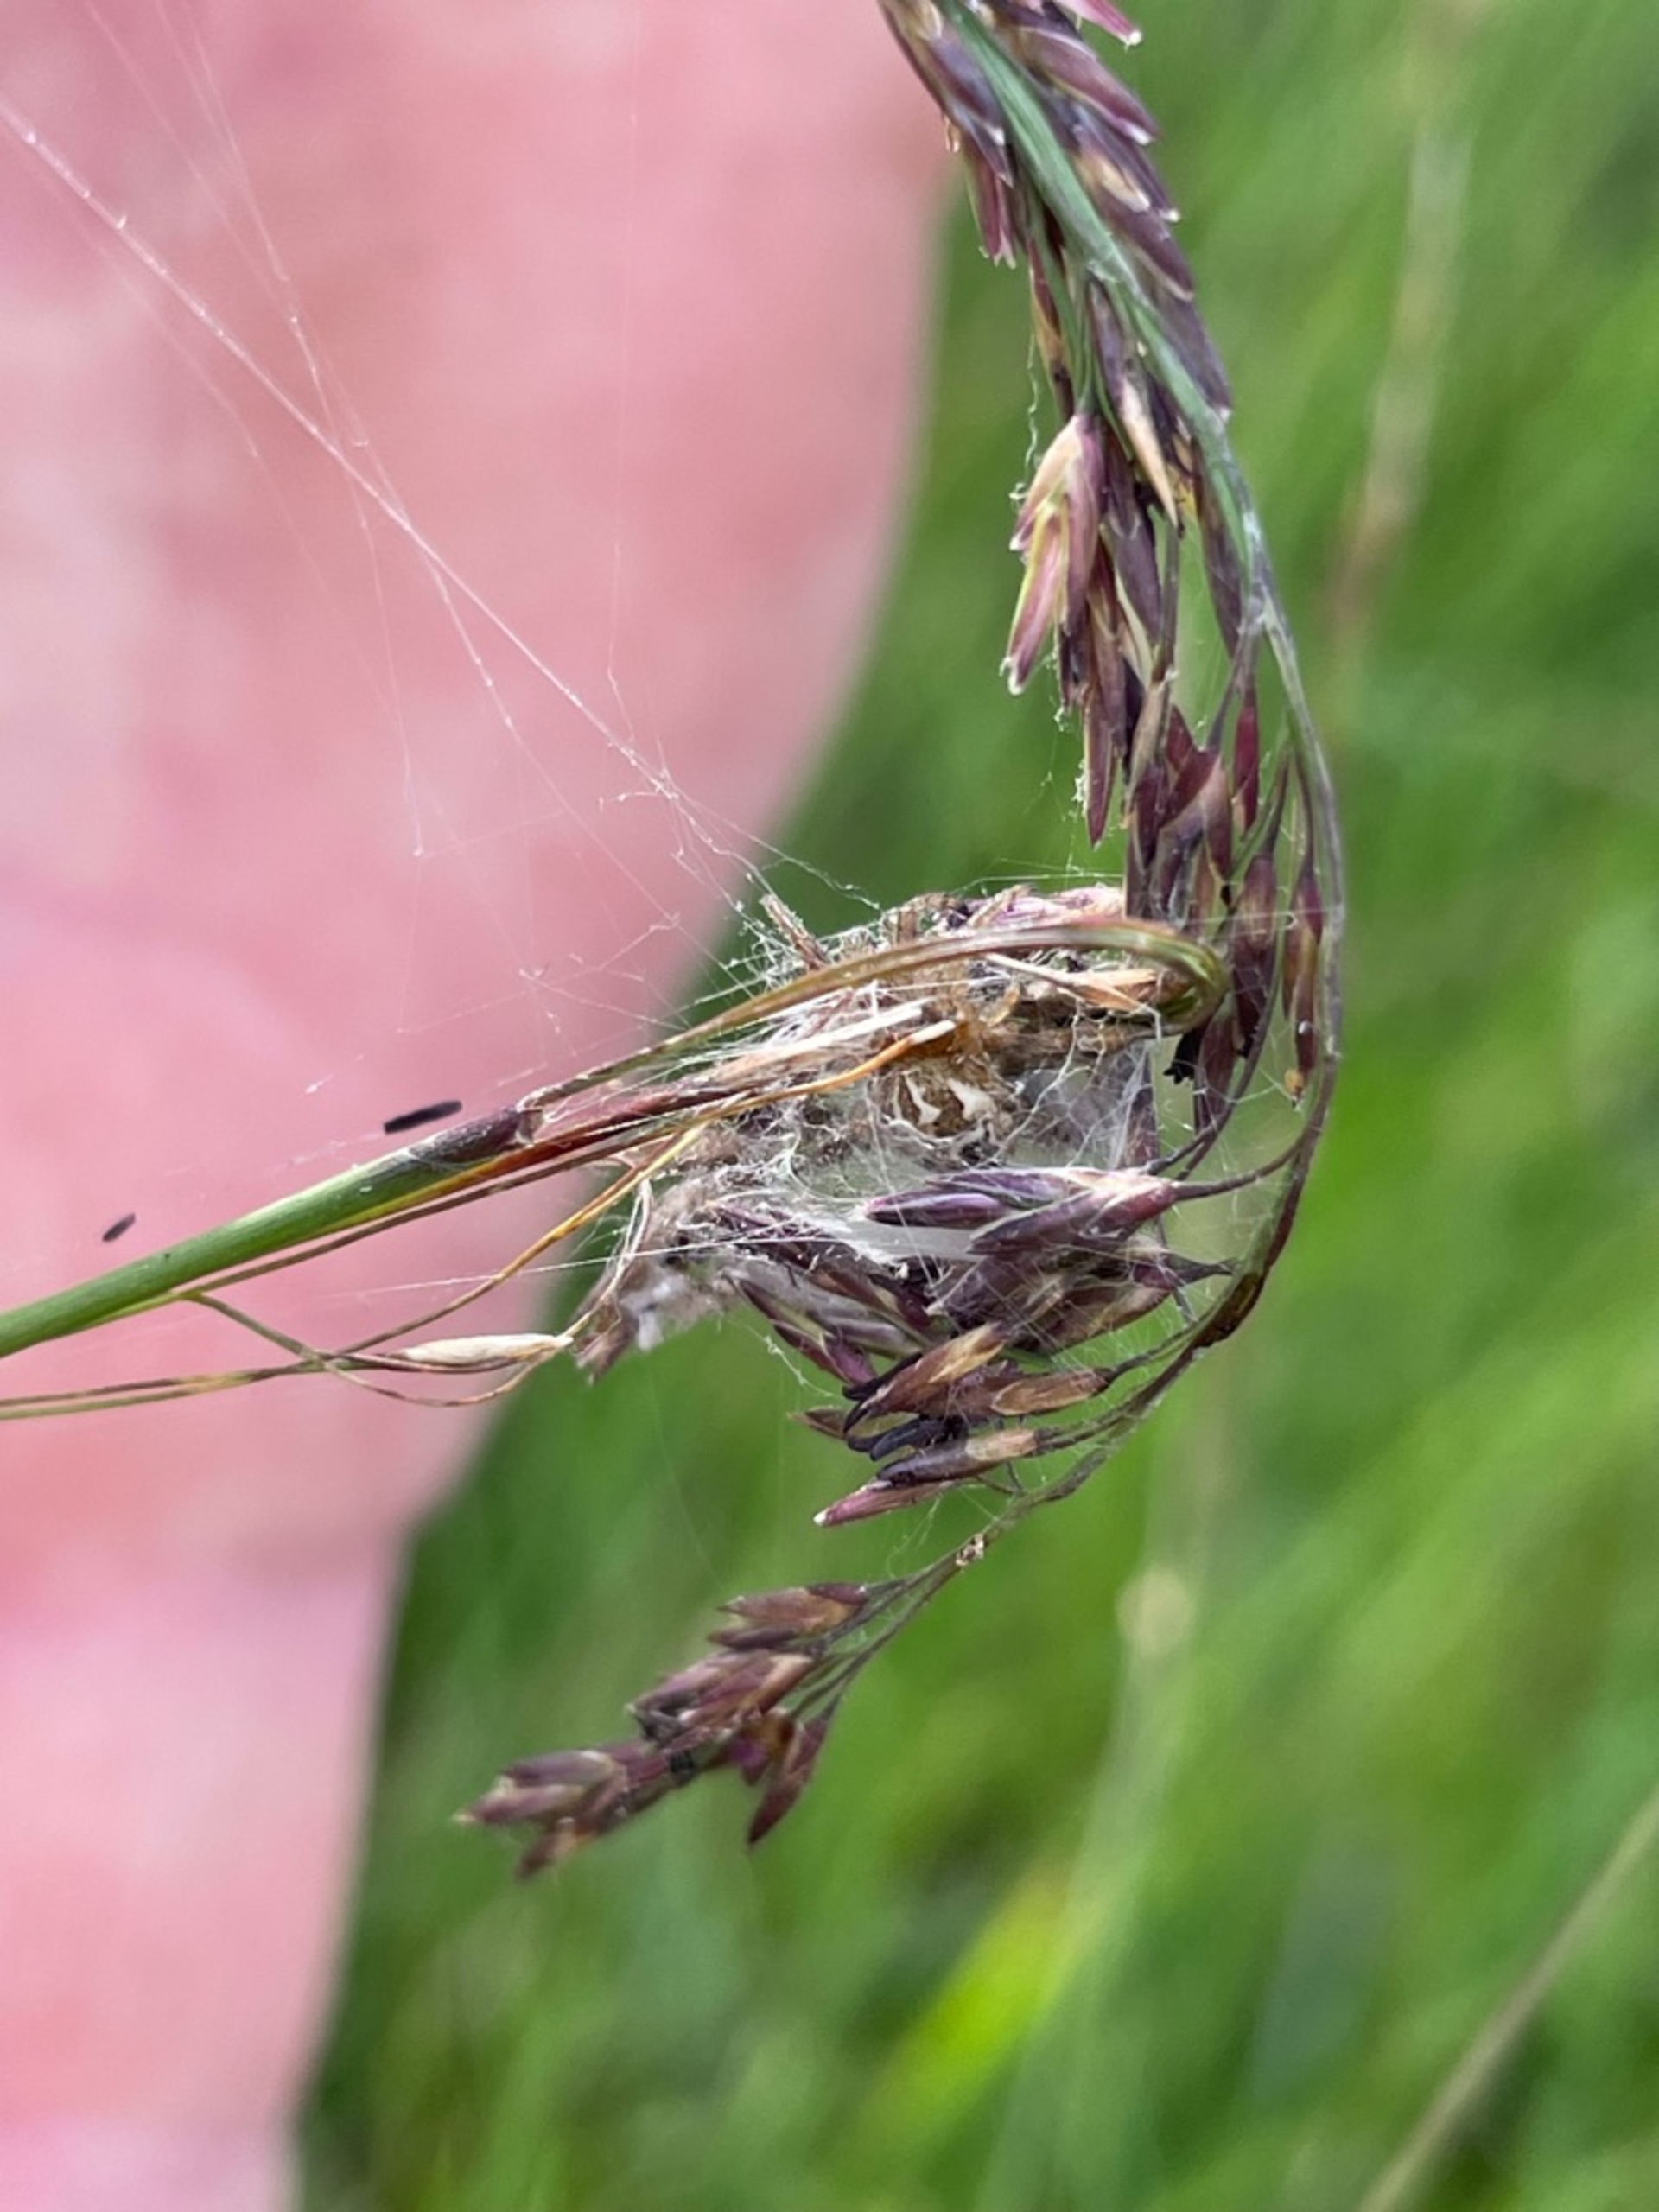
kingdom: Animalia
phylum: Arthropoda
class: Arachnida
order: Araneae
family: Araneidae
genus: Larinioides
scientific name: Larinioides cornutus
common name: Sivhjulspinder
